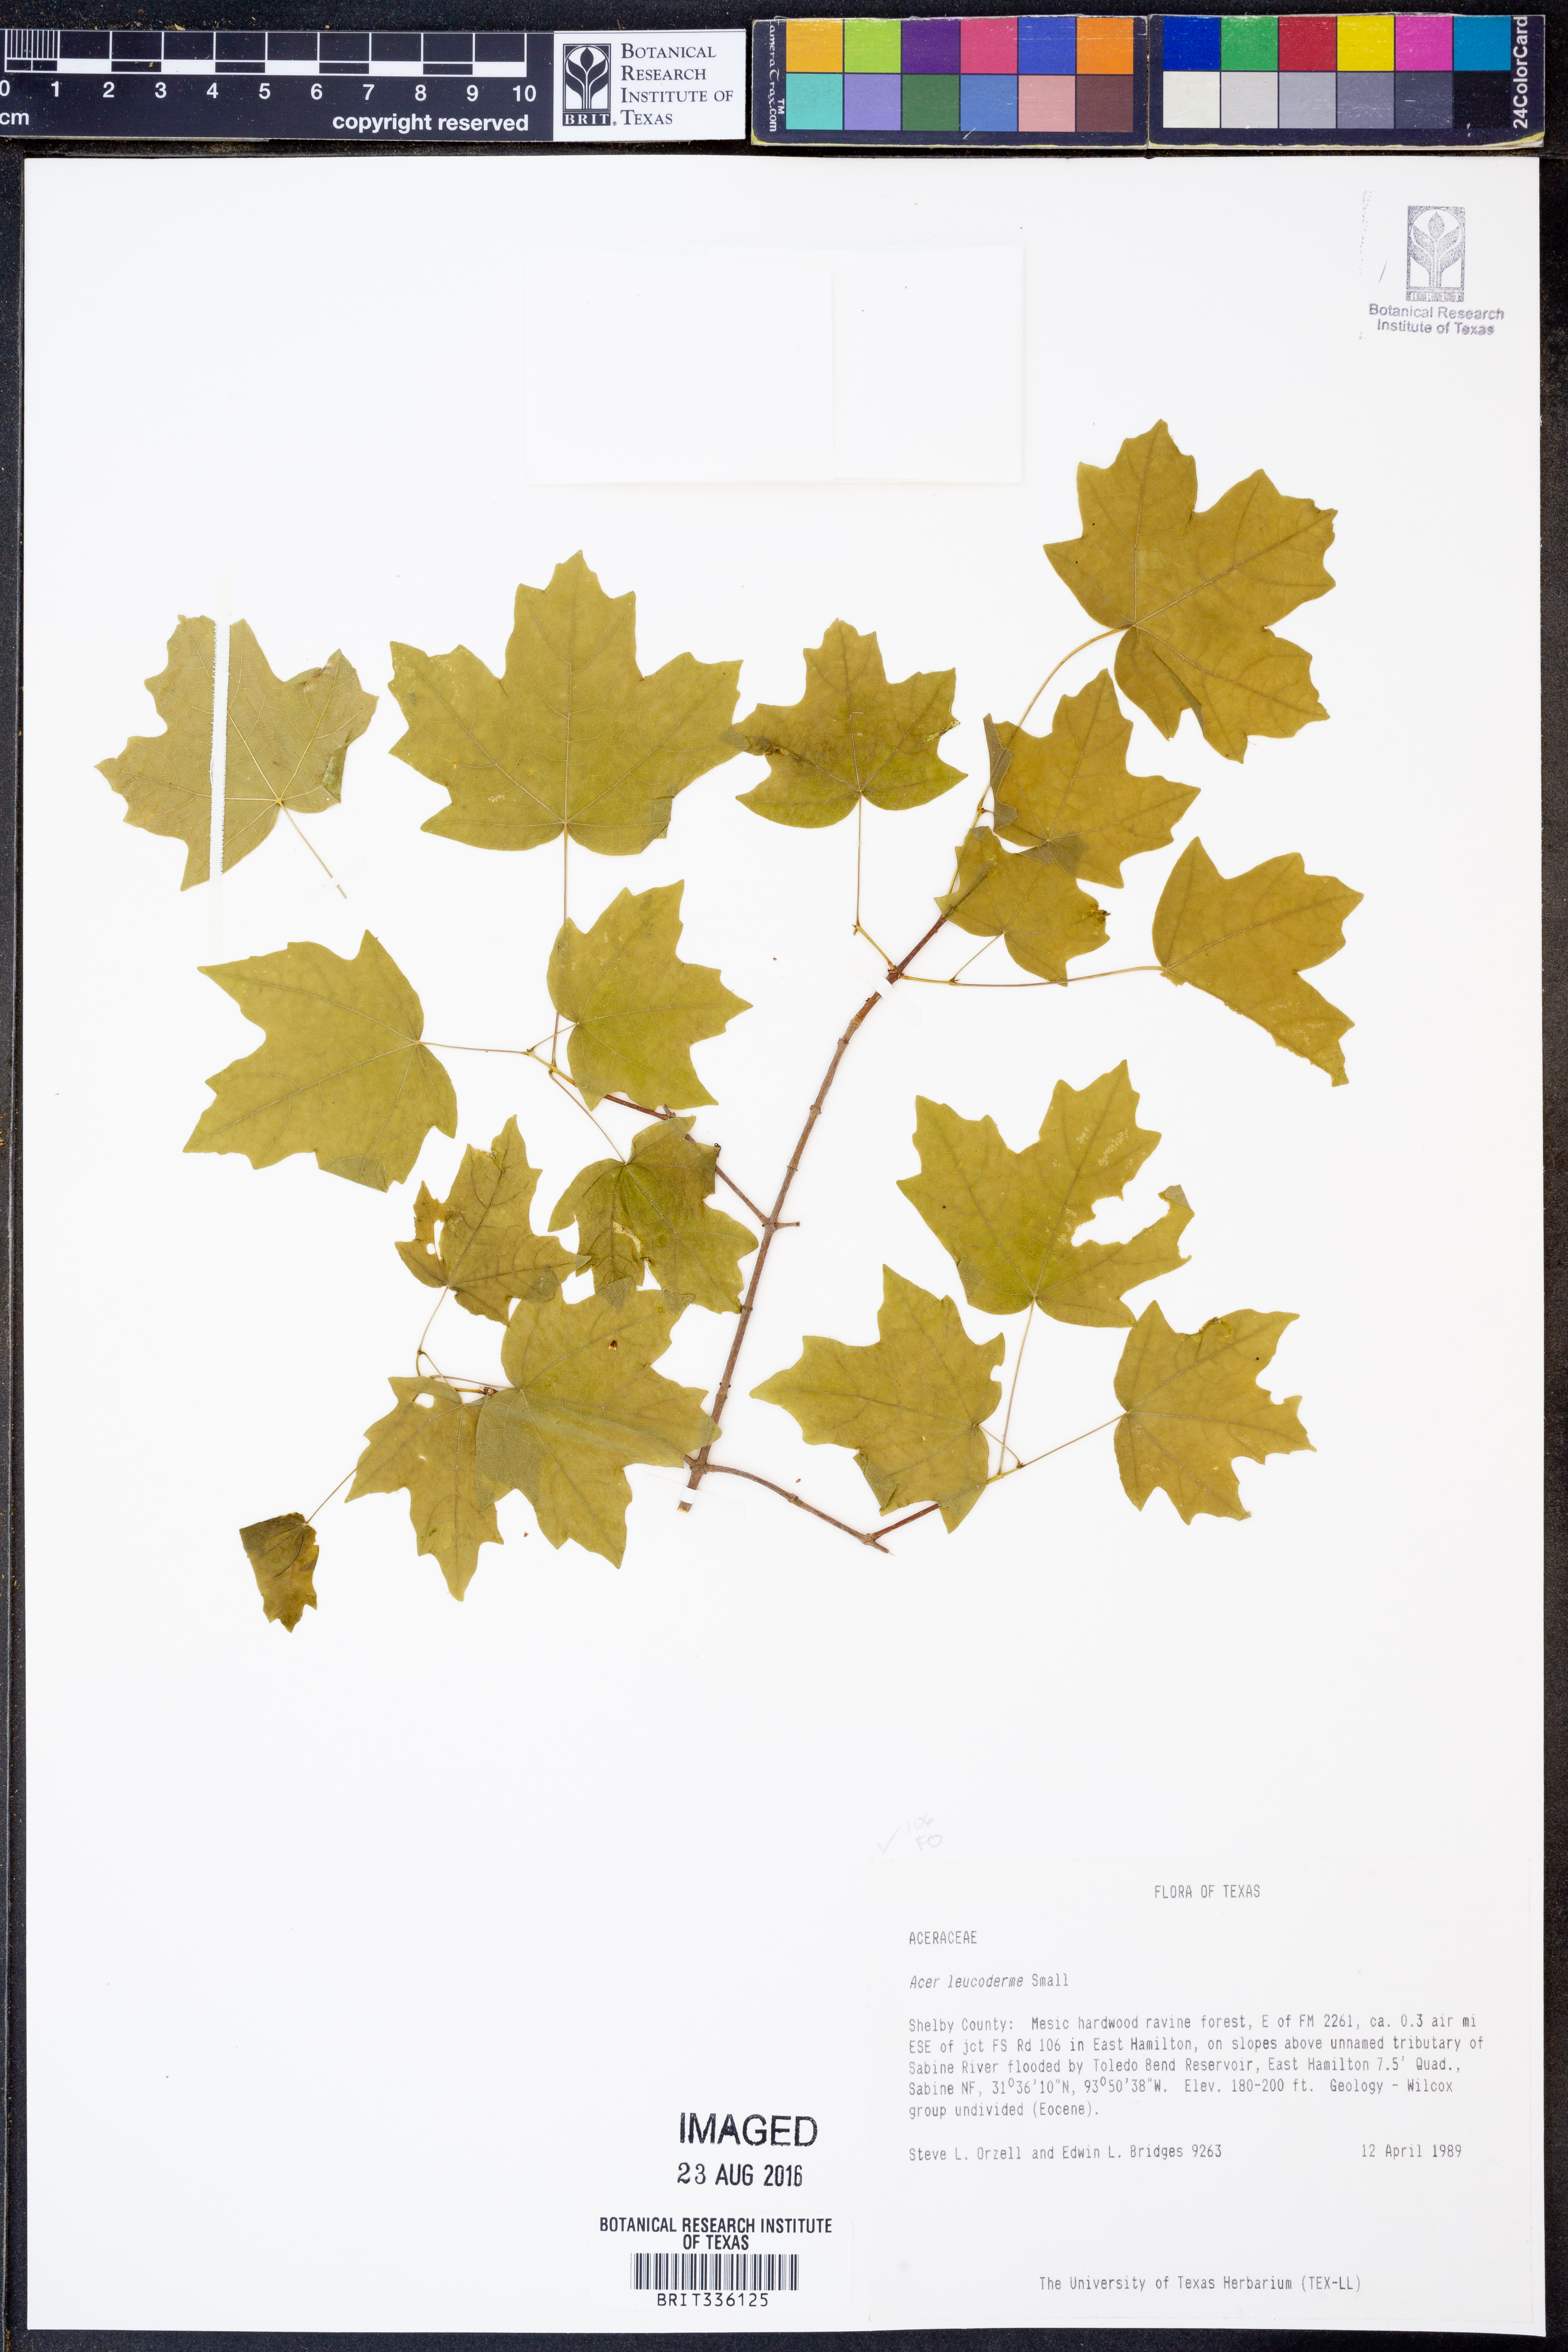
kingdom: Plantae
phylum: Tracheophyta
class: Magnoliopsida
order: Sapindales
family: Sapindaceae
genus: Acer
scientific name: Acer leucoderme
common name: Chalk maple
